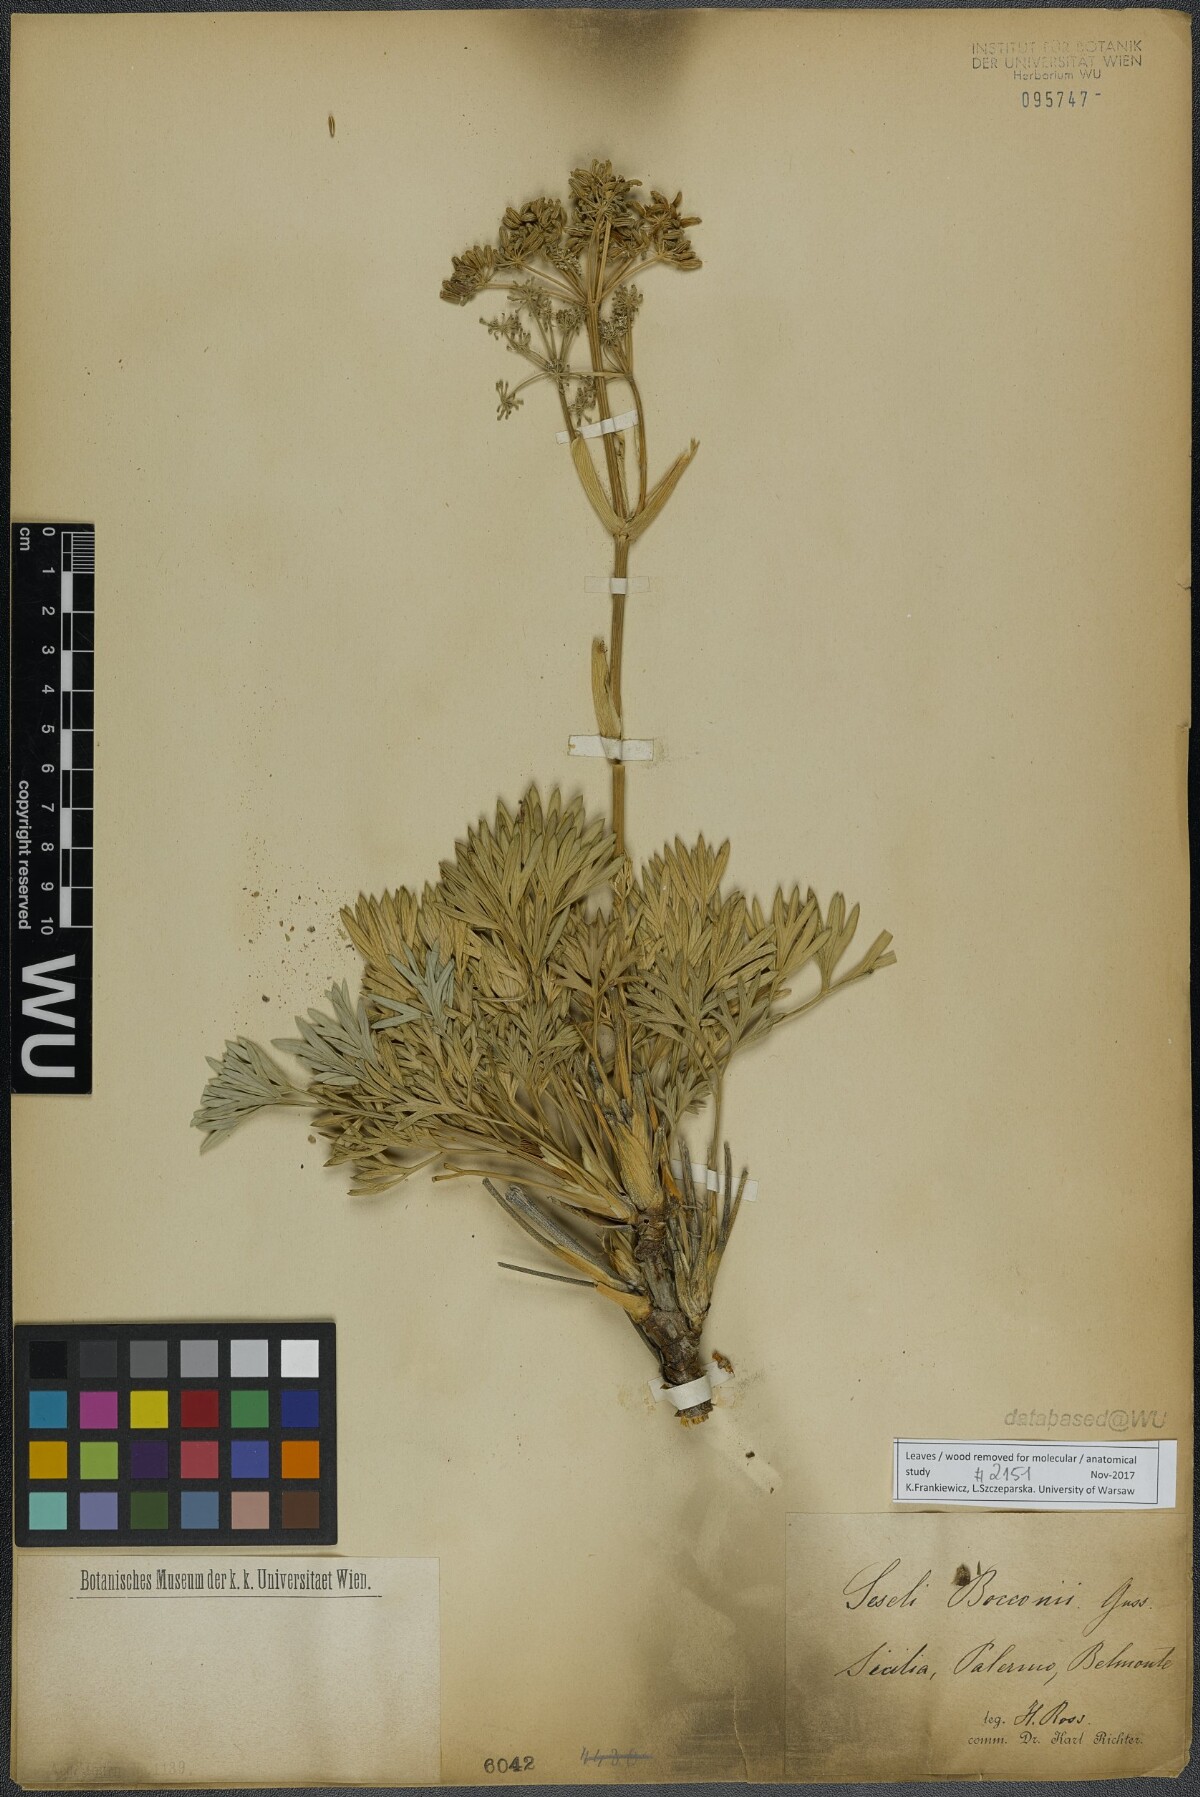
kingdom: Plantae
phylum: Tracheophyta
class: Magnoliopsida
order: Apiales
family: Apiaceae
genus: Seseli
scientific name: Seseli bocconei
